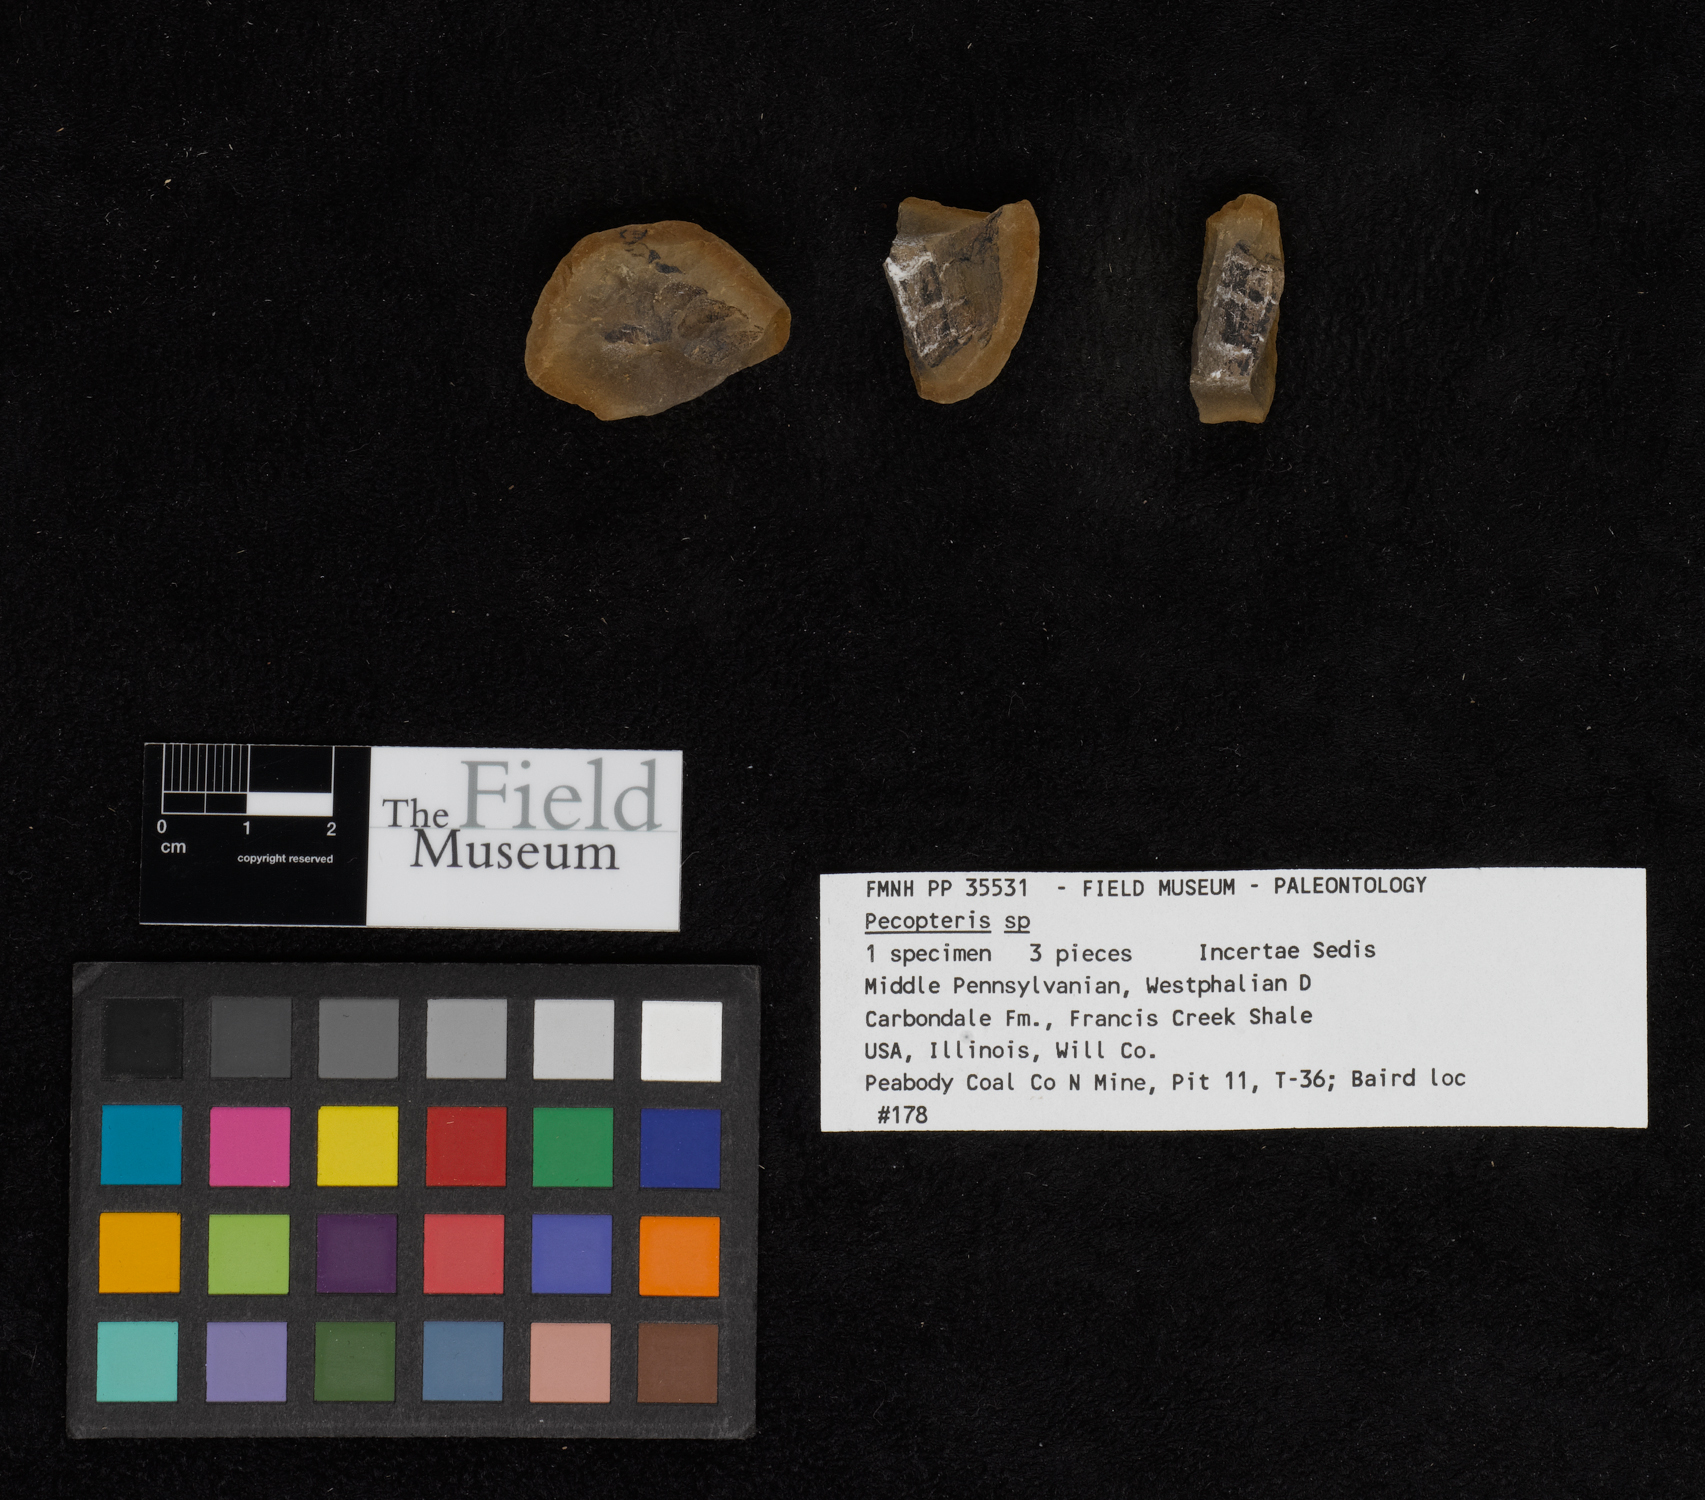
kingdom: Plantae
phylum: Tracheophyta
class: Polypodiopsida
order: Marattiales
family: Asterothecaceae
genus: Pecopteris
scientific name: Pecopteris
